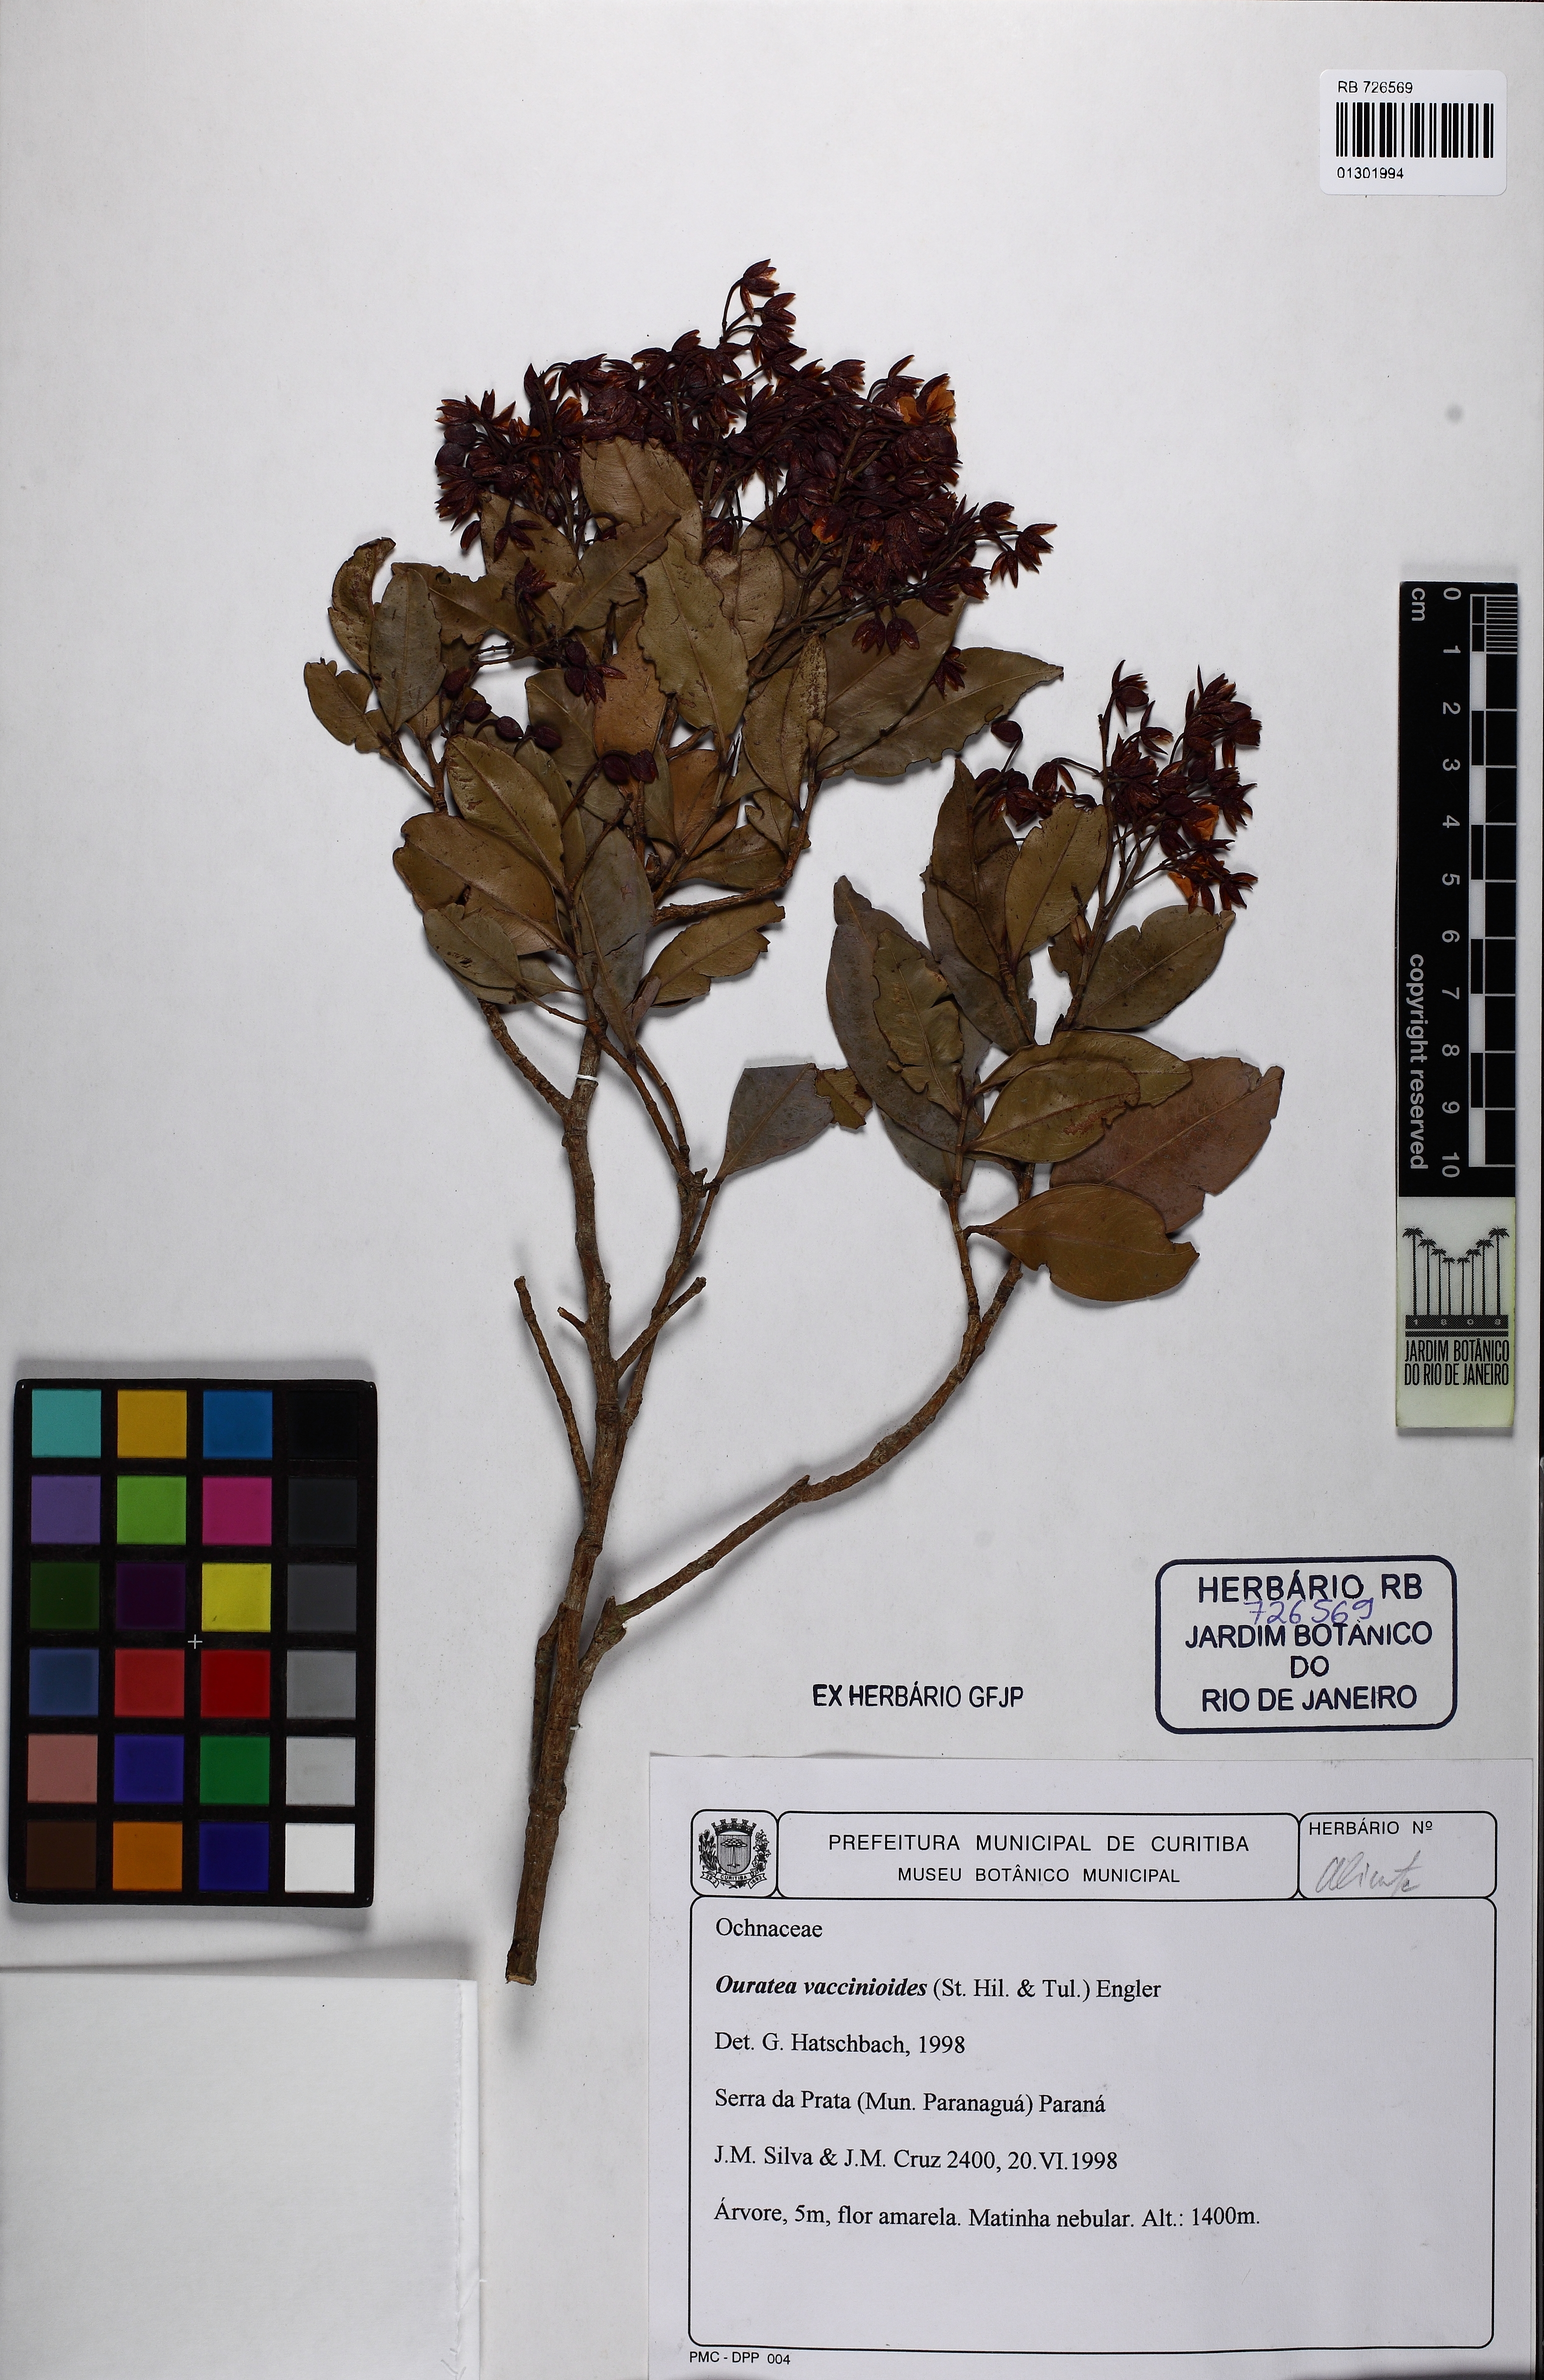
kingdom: Plantae
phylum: Tracheophyta
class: Magnoliopsida
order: Malpighiales
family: Ochnaceae
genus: Ouratea
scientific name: Ouratea vaccinioides
